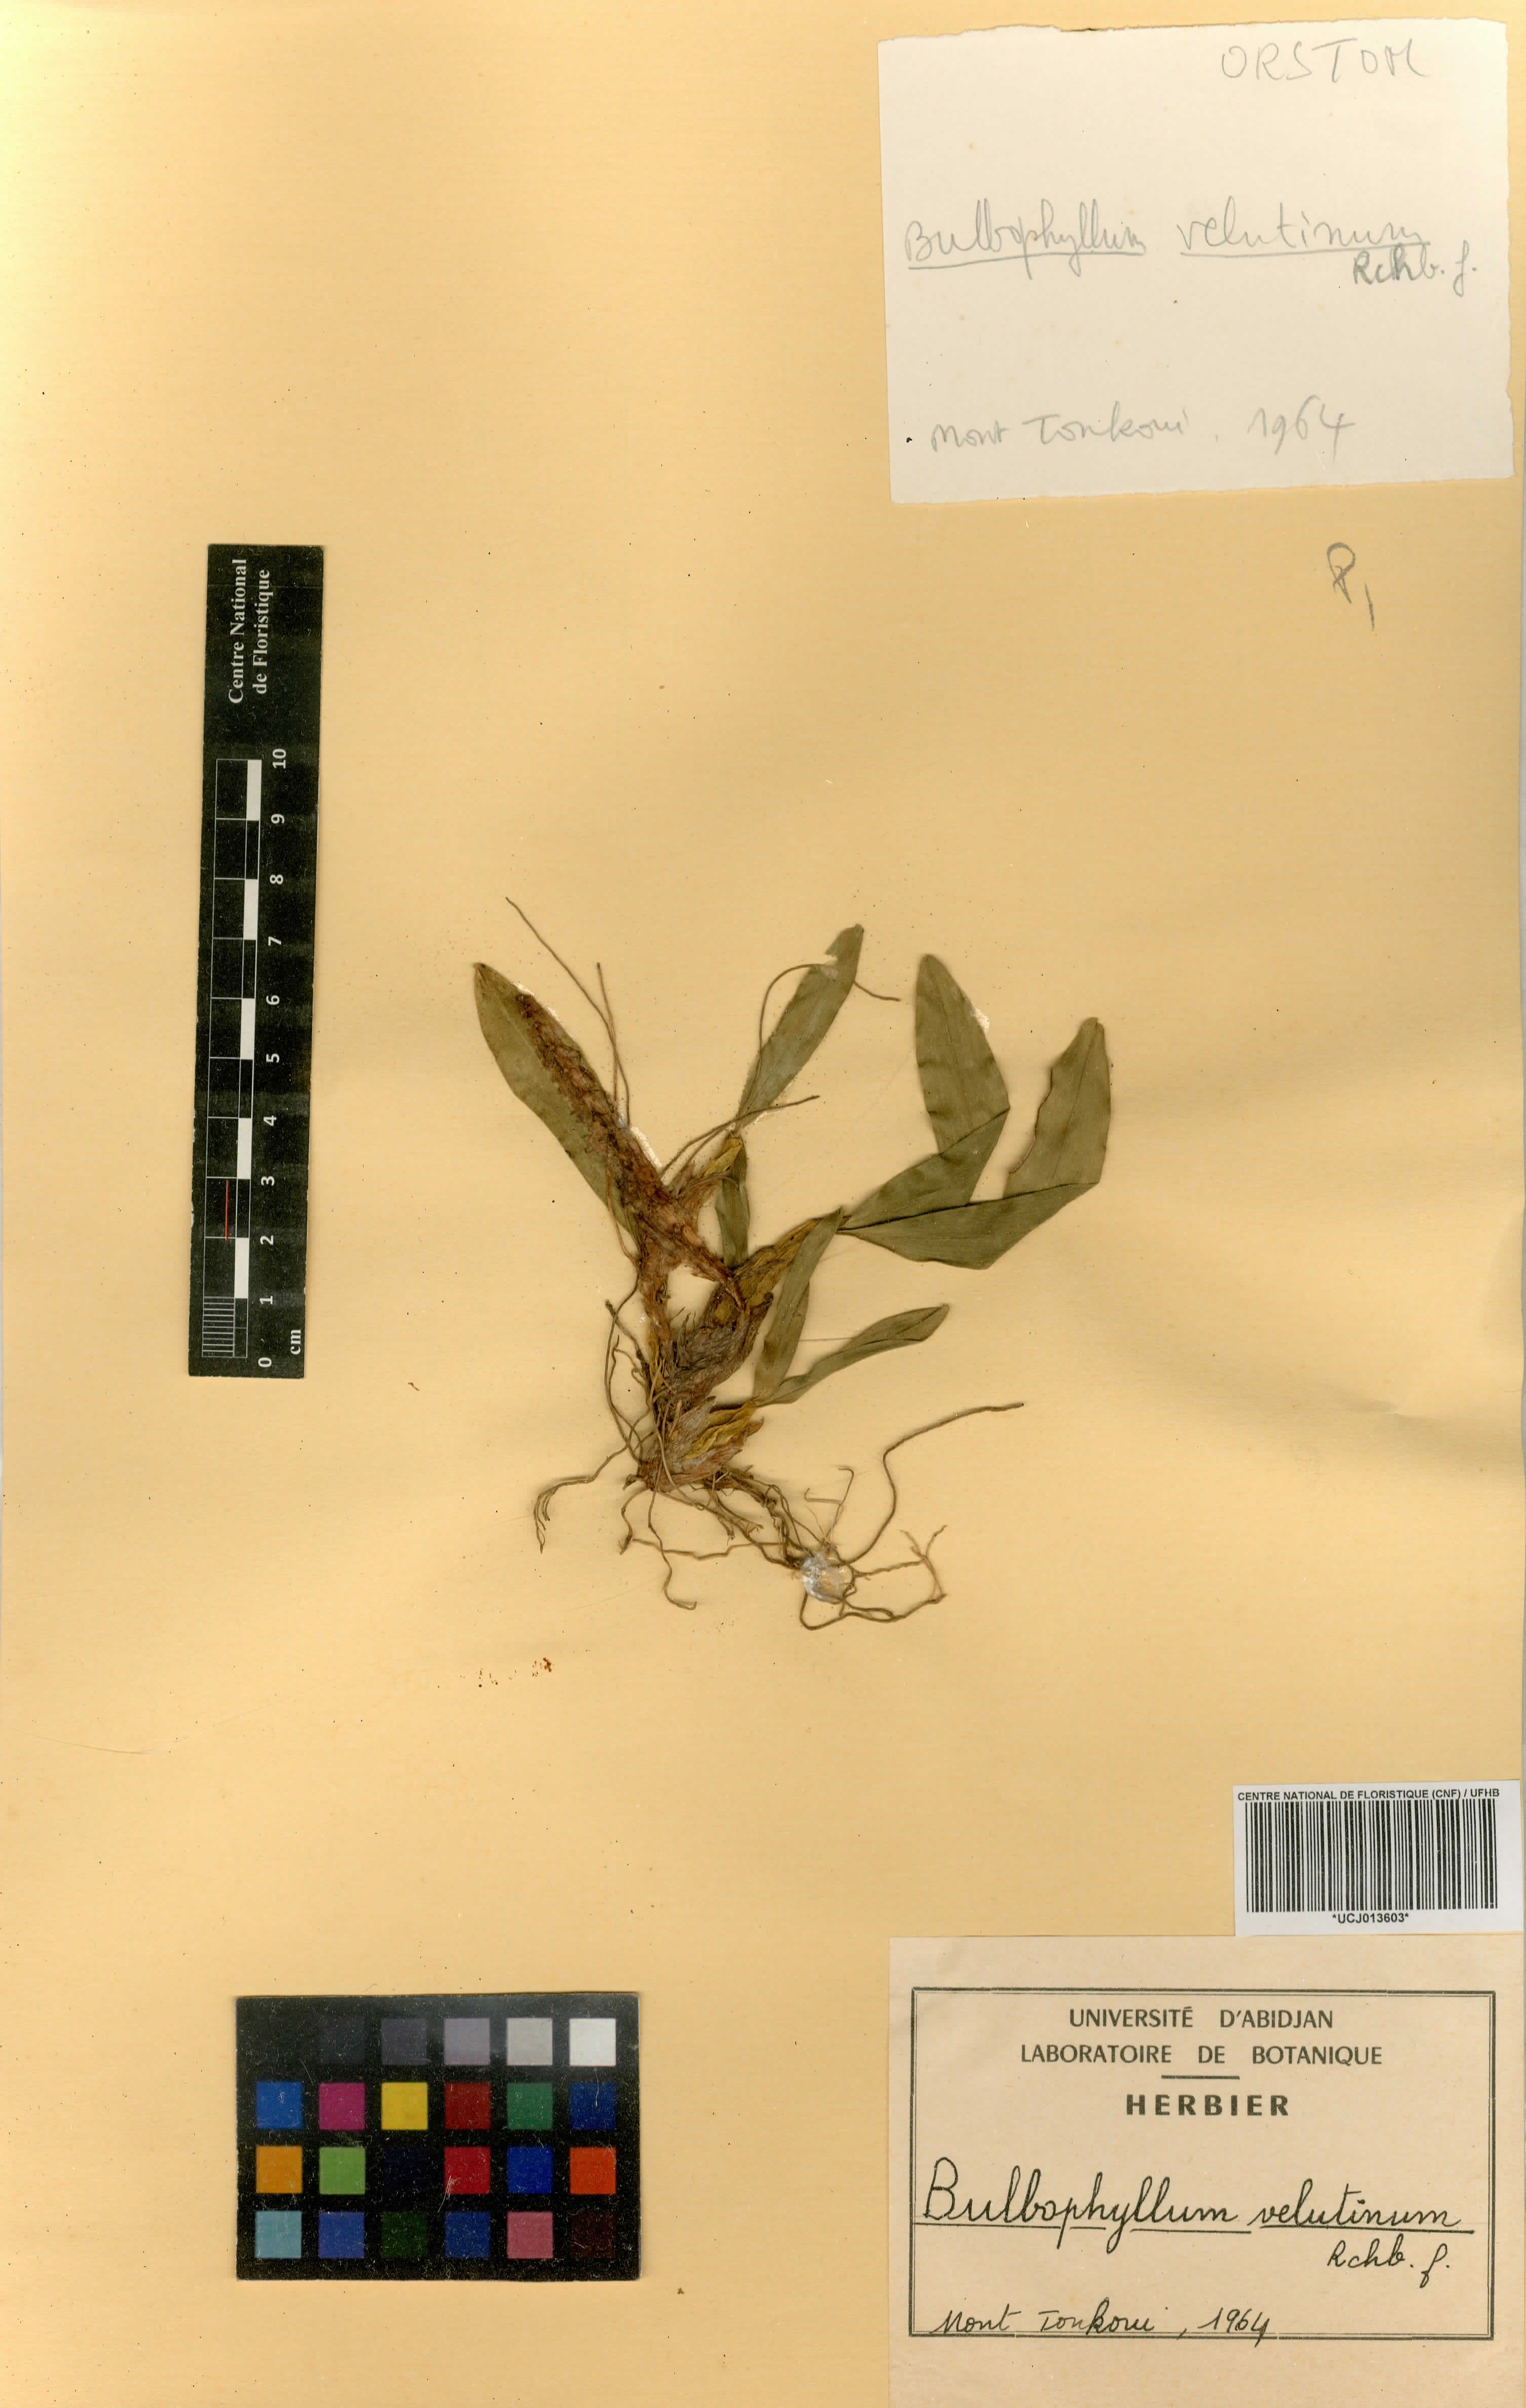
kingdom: Plantae
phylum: Tracheophyta
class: Liliopsida
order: Asparagales
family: Orchidaceae
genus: Bulbophyllum
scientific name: Bulbophyllum falcatum
